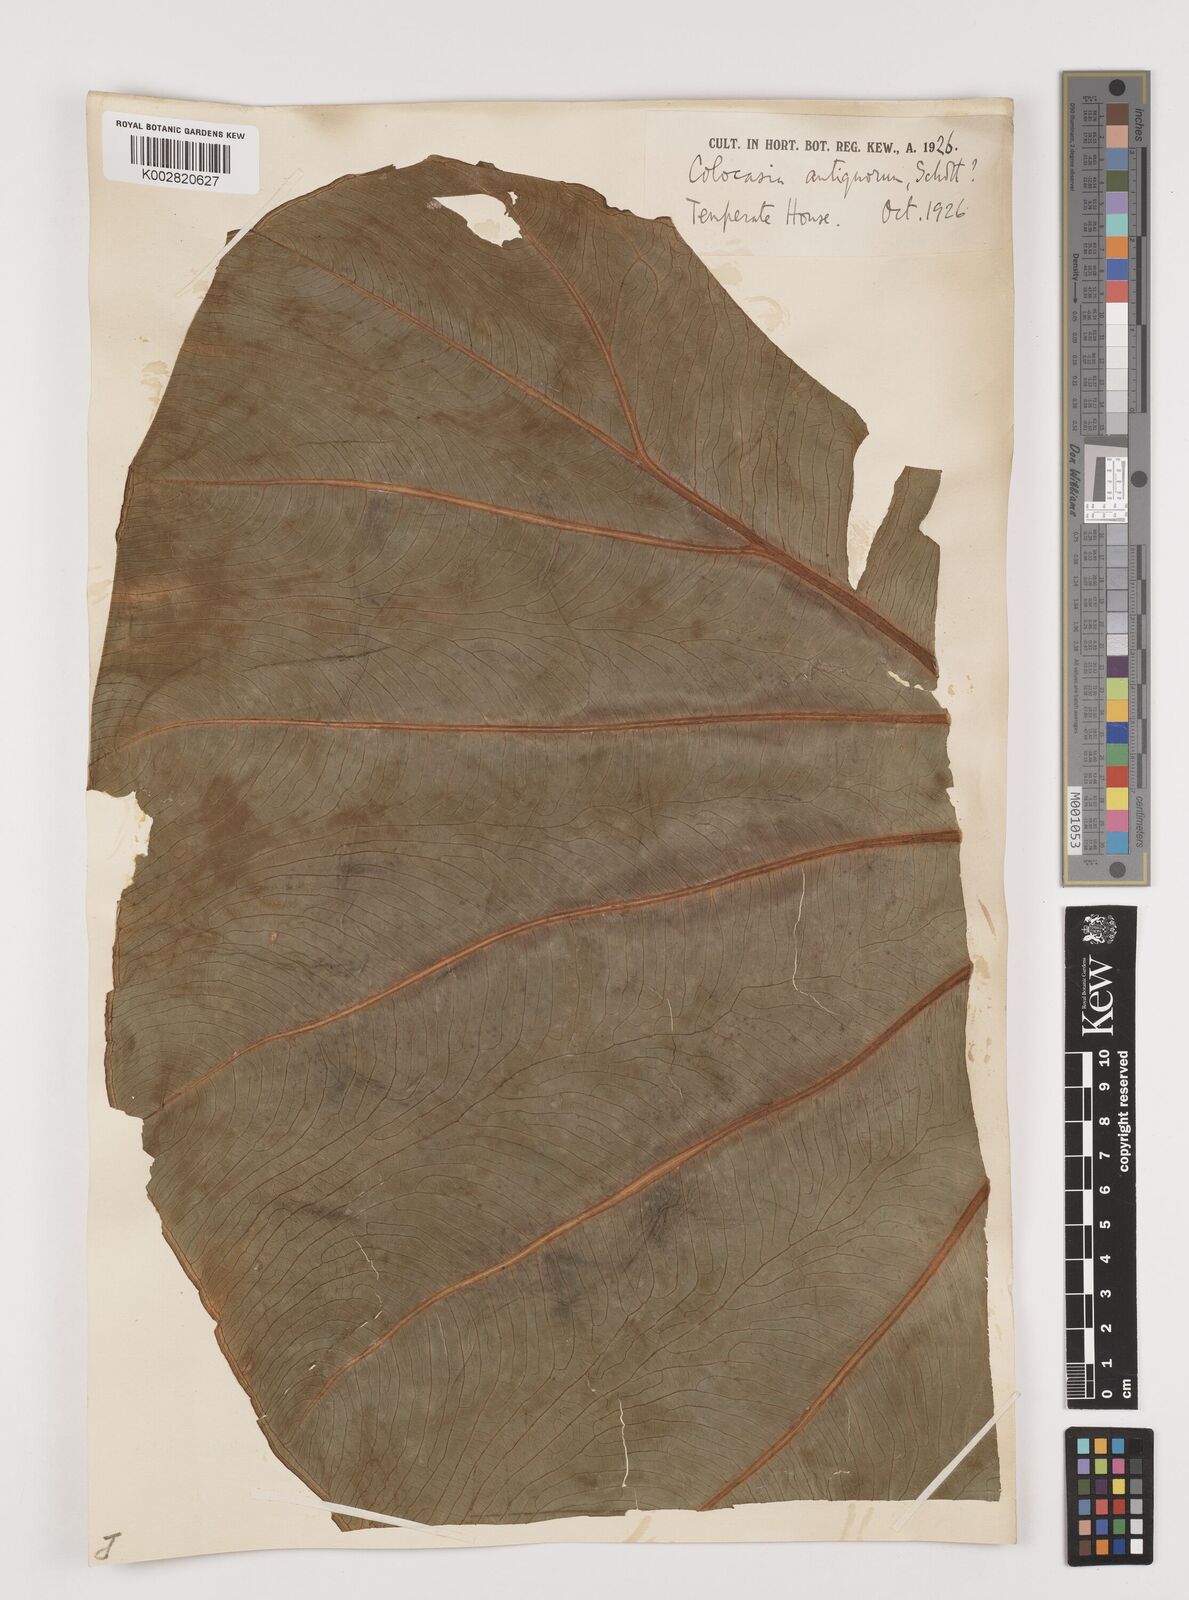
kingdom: Plantae
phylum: Tracheophyta
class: Liliopsida
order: Alismatales
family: Araceae
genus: Leucocasia
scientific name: Leucocasia gigantea
